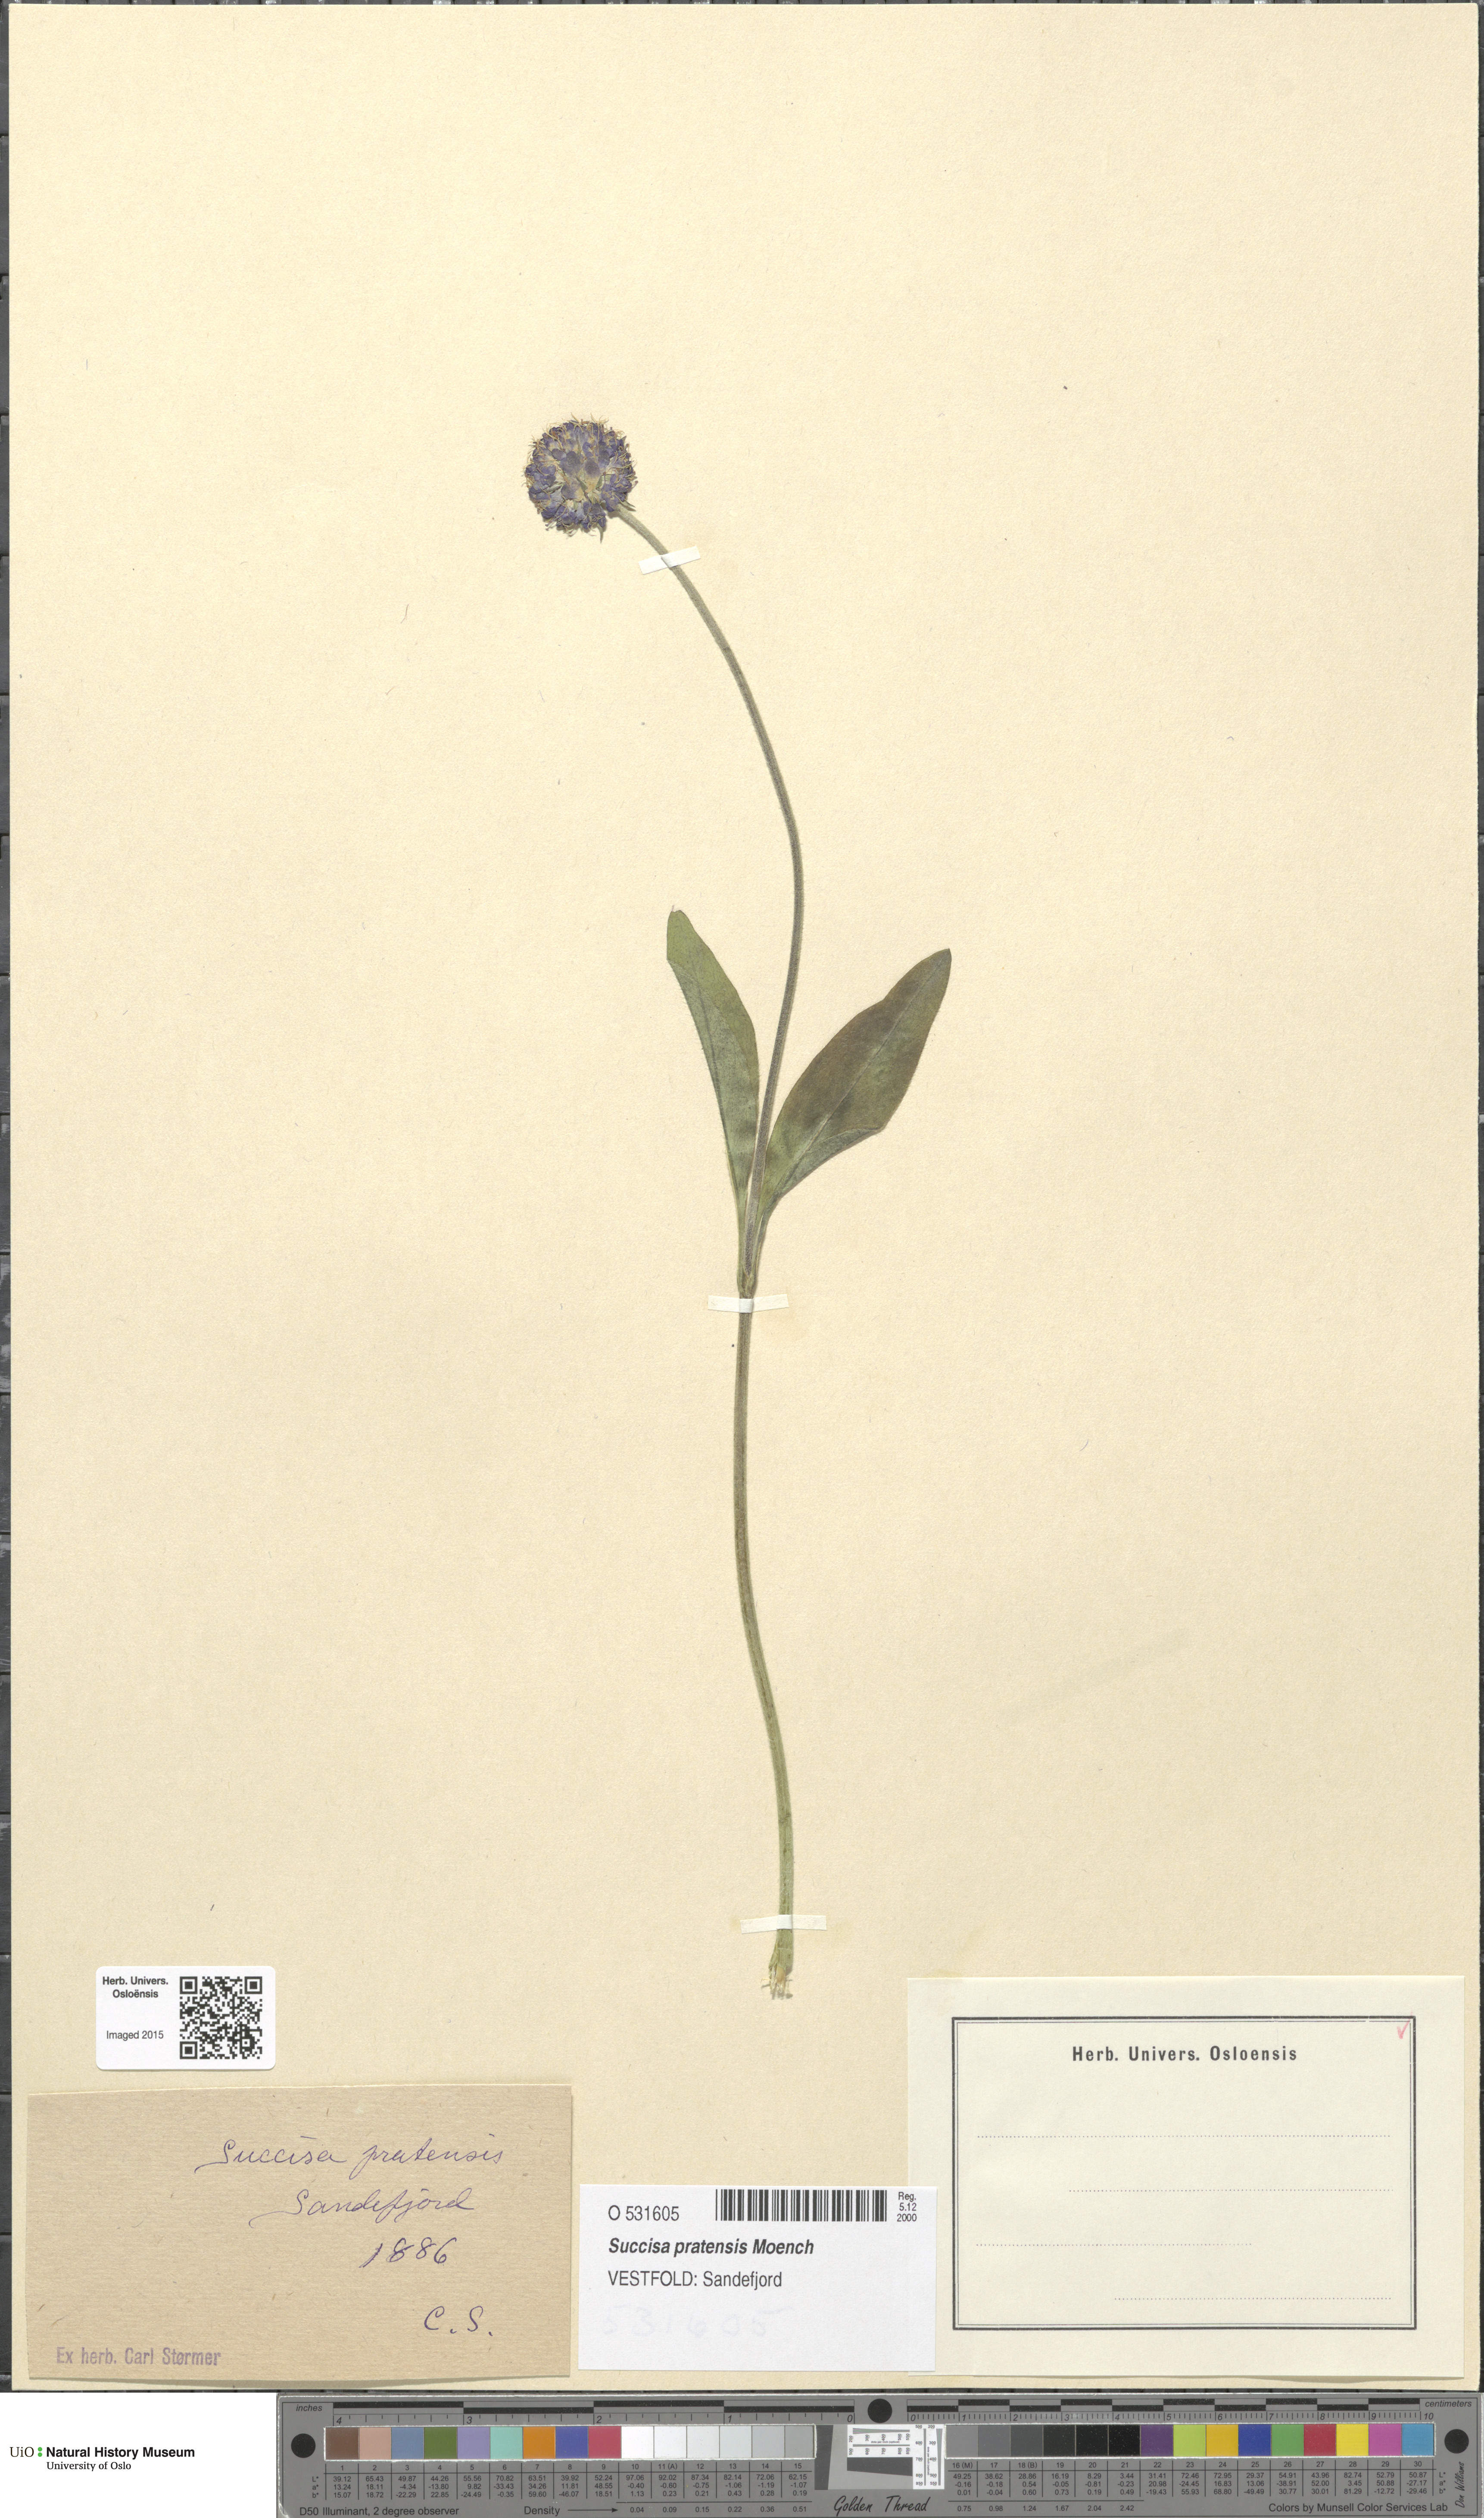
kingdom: Plantae
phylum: Tracheophyta
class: Magnoliopsida
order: Dipsacales
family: Caprifoliaceae
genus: Succisa
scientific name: Succisa pratensis
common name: Devil's-bit
